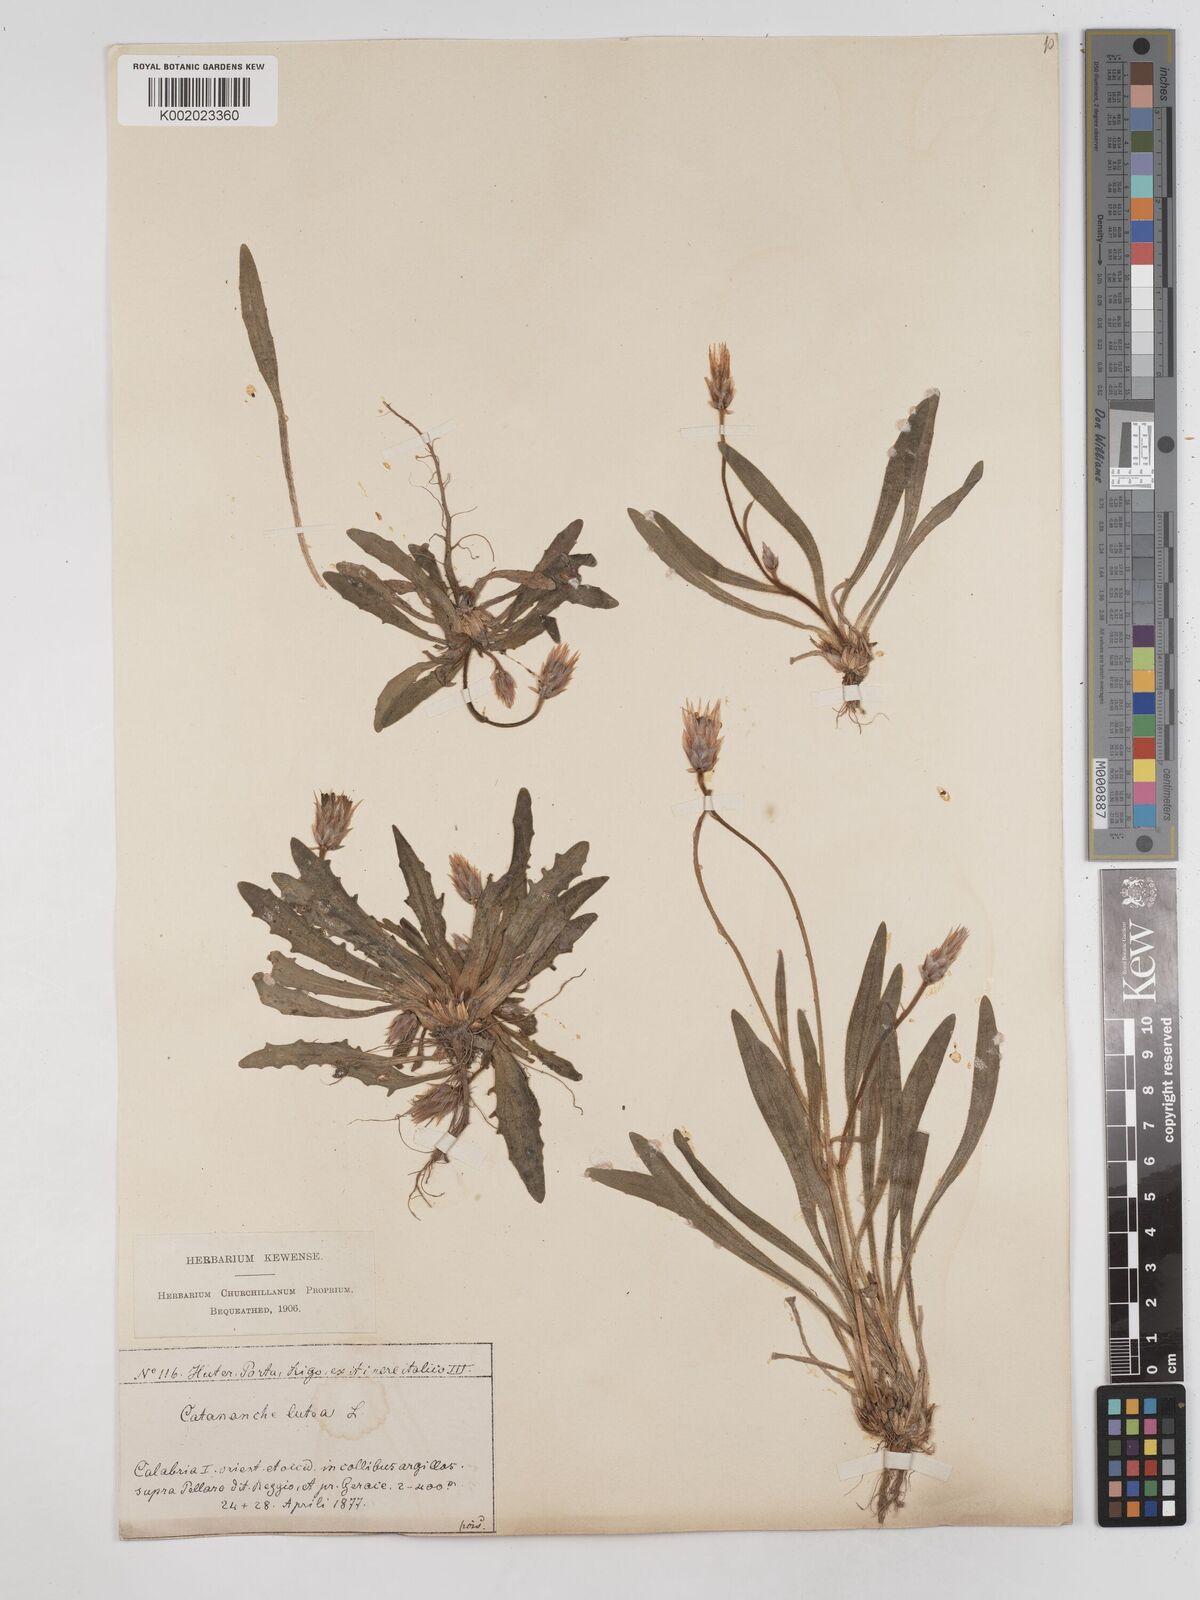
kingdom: Plantae
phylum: Tracheophyta
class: Magnoliopsida
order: Asterales
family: Asteraceae
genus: Catananche
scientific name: Catananche lutea
